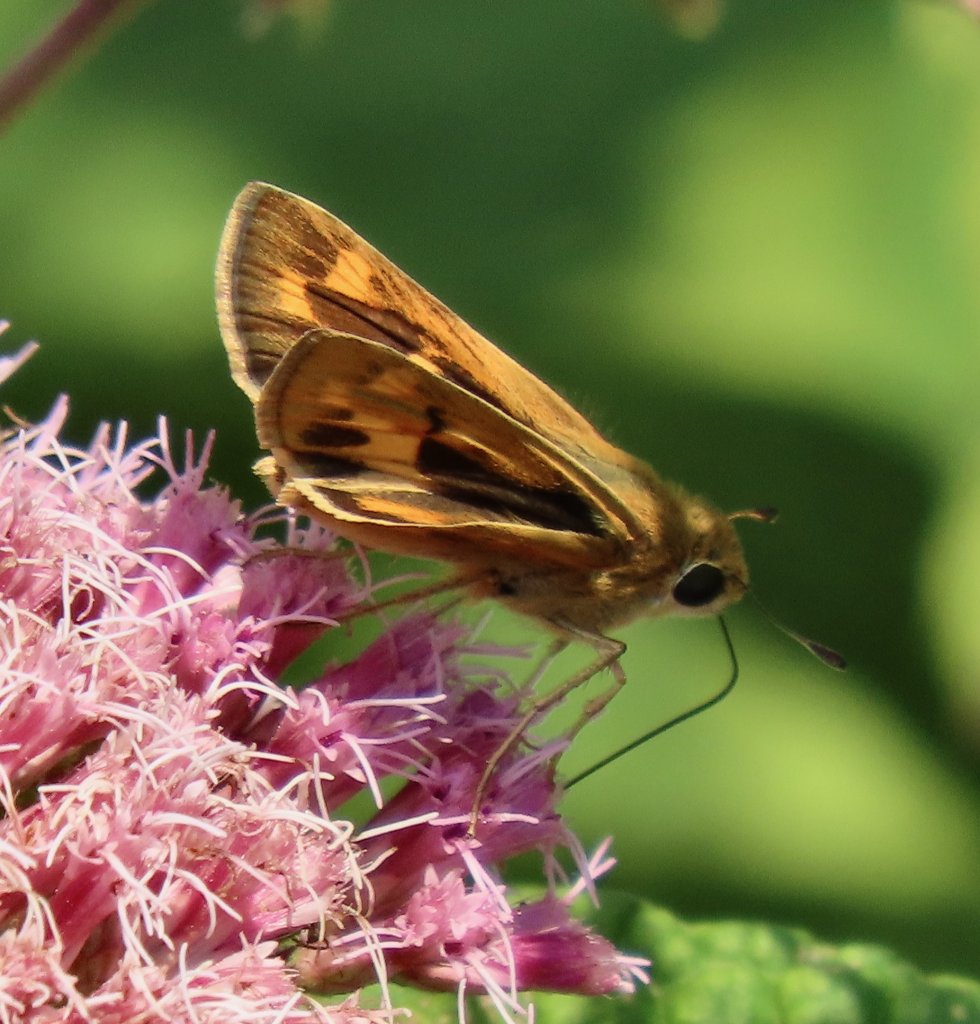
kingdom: Animalia
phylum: Arthropoda
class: Insecta
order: Lepidoptera
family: Hesperiidae
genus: Hylephila
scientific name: Hylephila phyleus
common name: Fiery Skipper
